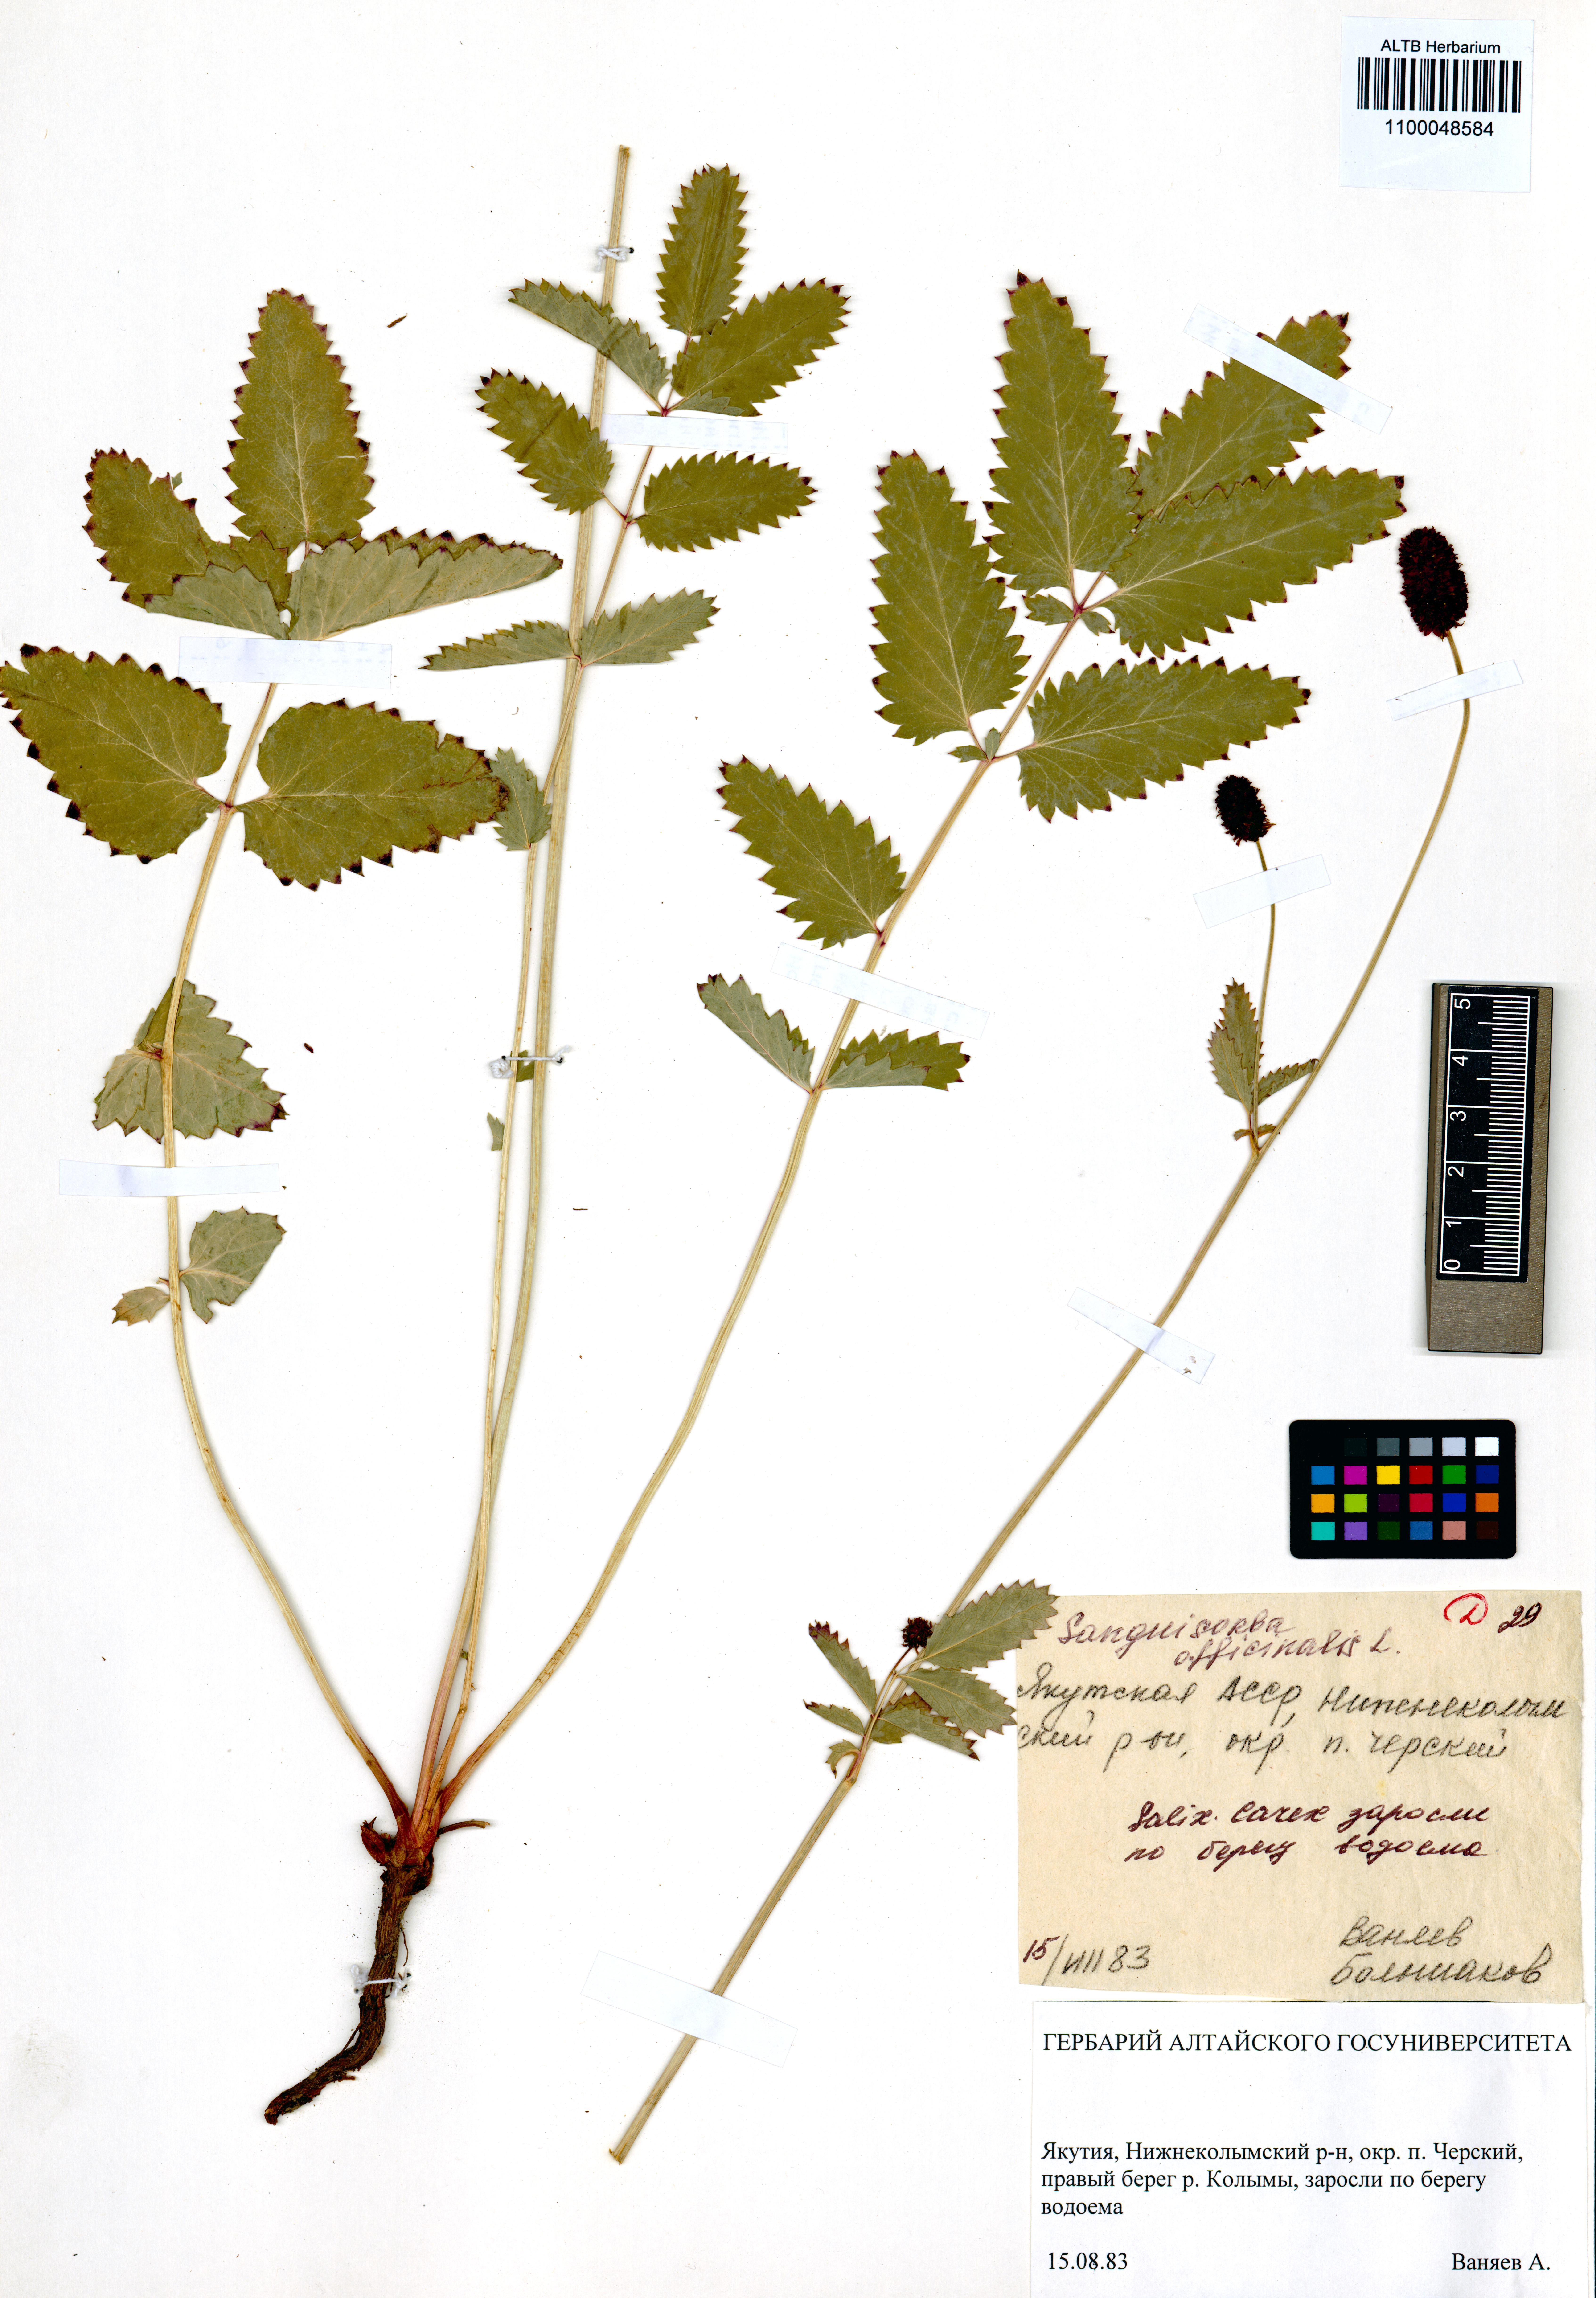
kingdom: Plantae
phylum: Tracheophyta
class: Magnoliopsida
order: Rosales
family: Rosaceae
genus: Sanguisorba
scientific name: Sanguisorba officinalis
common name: Great burnet
